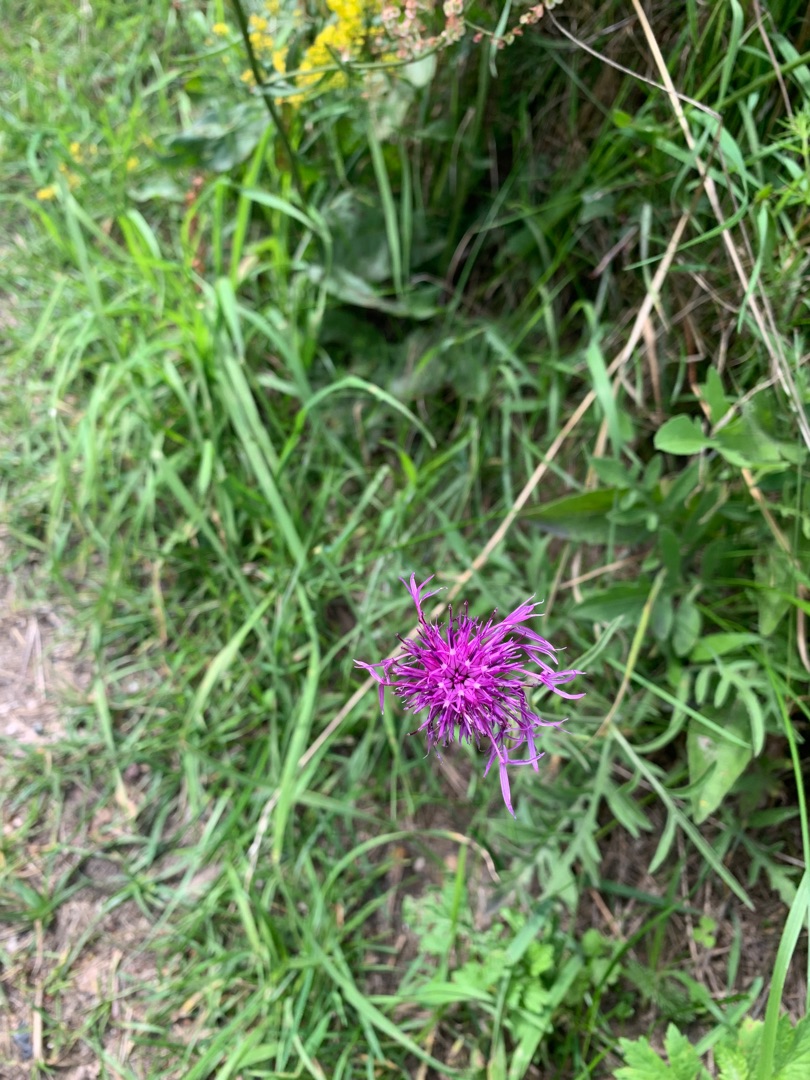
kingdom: Plantae
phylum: Tracheophyta
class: Magnoliopsida
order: Asterales
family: Asteraceae
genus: Centaurea
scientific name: Centaurea scabiosa
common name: Stor knopurt
